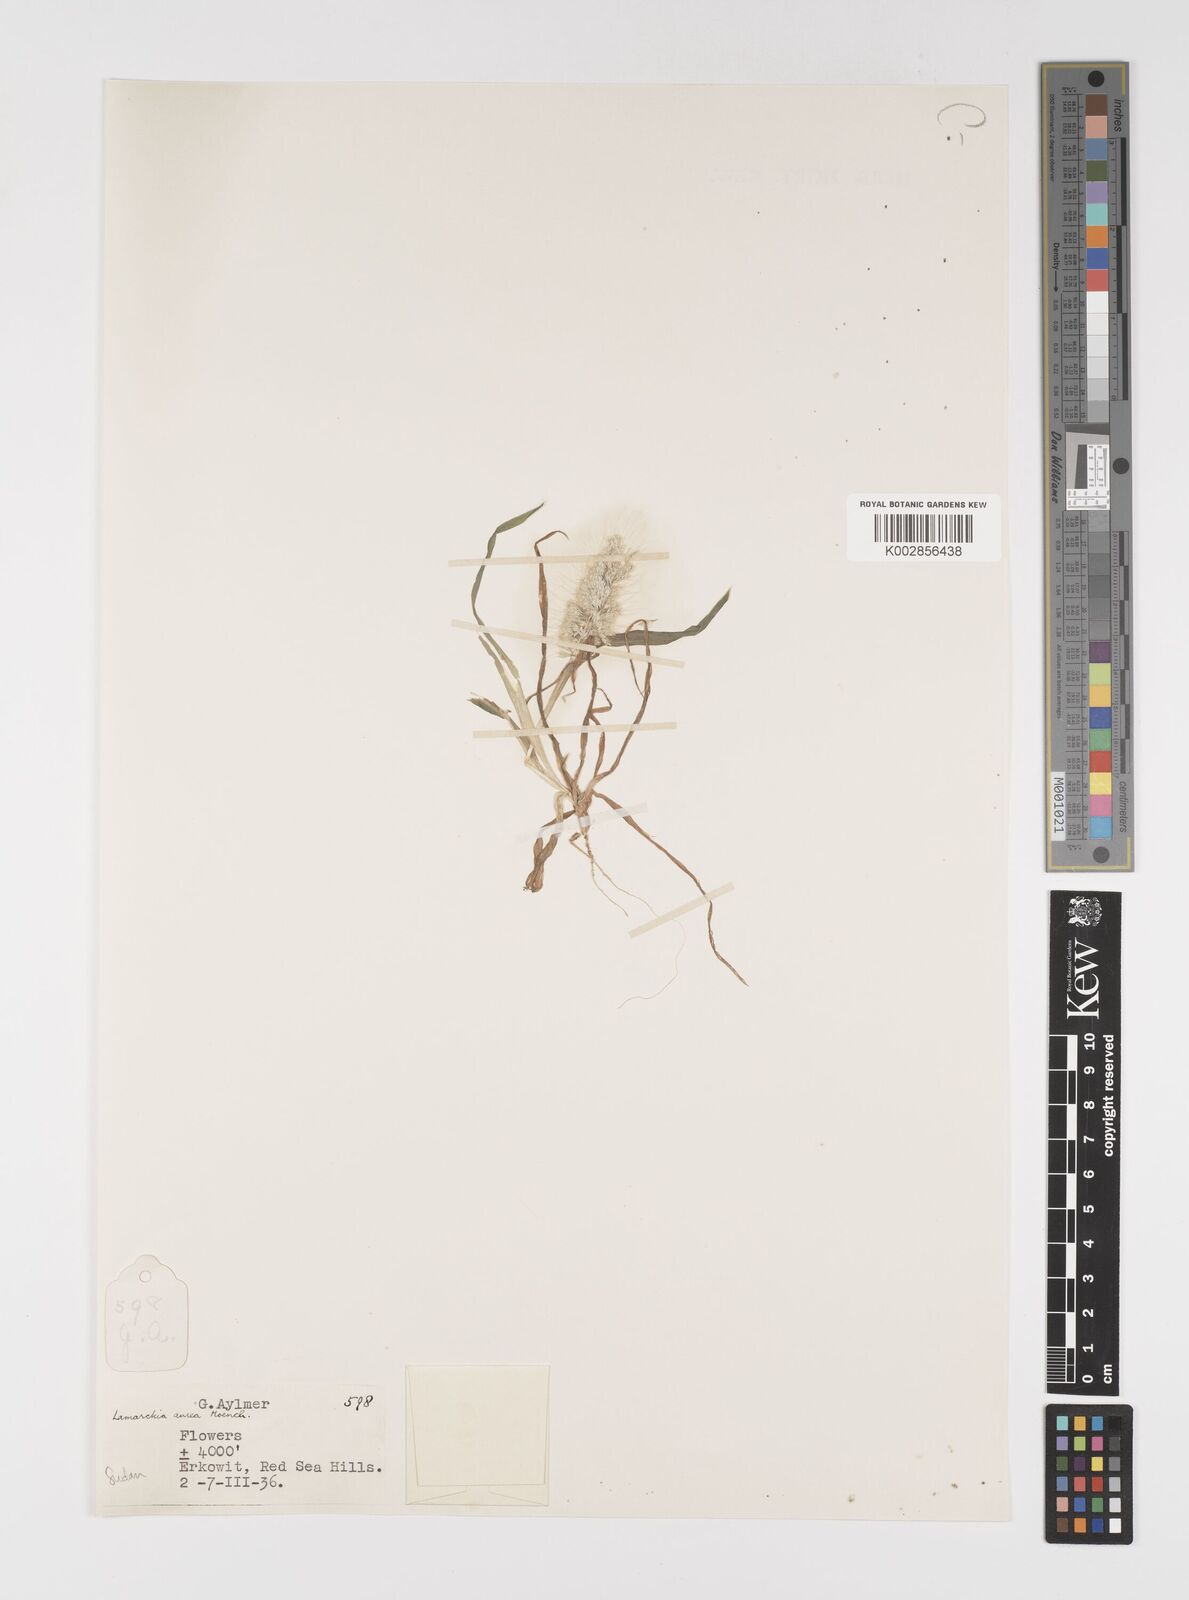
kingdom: Plantae
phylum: Tracheophyta
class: Liliopsida
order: Poales
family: Poaceae
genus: Lamarckia
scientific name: Lamarckia aurea
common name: Golden dog's-tail
